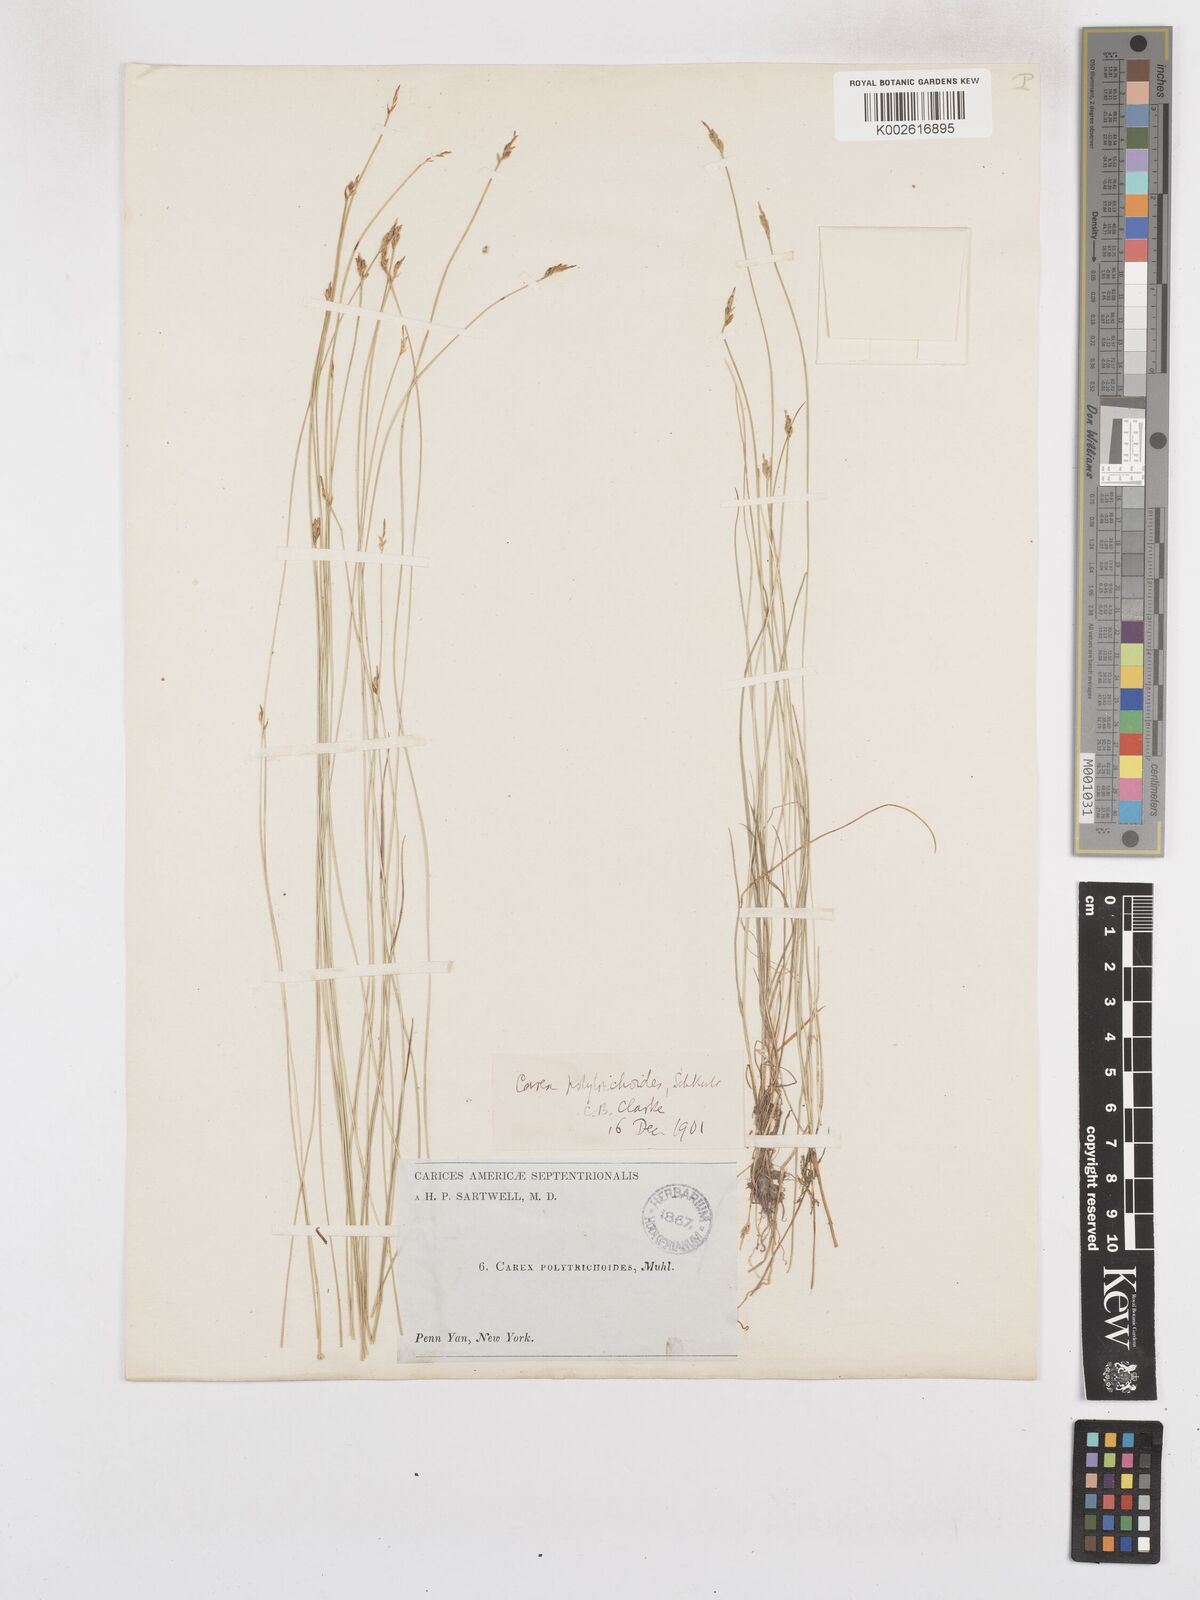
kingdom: Plantae
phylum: Tracheophyta
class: Liliopsida
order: Poales
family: Cyperaceae
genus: Carex
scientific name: Carex leptalea
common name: Bristly-stalked sedge
